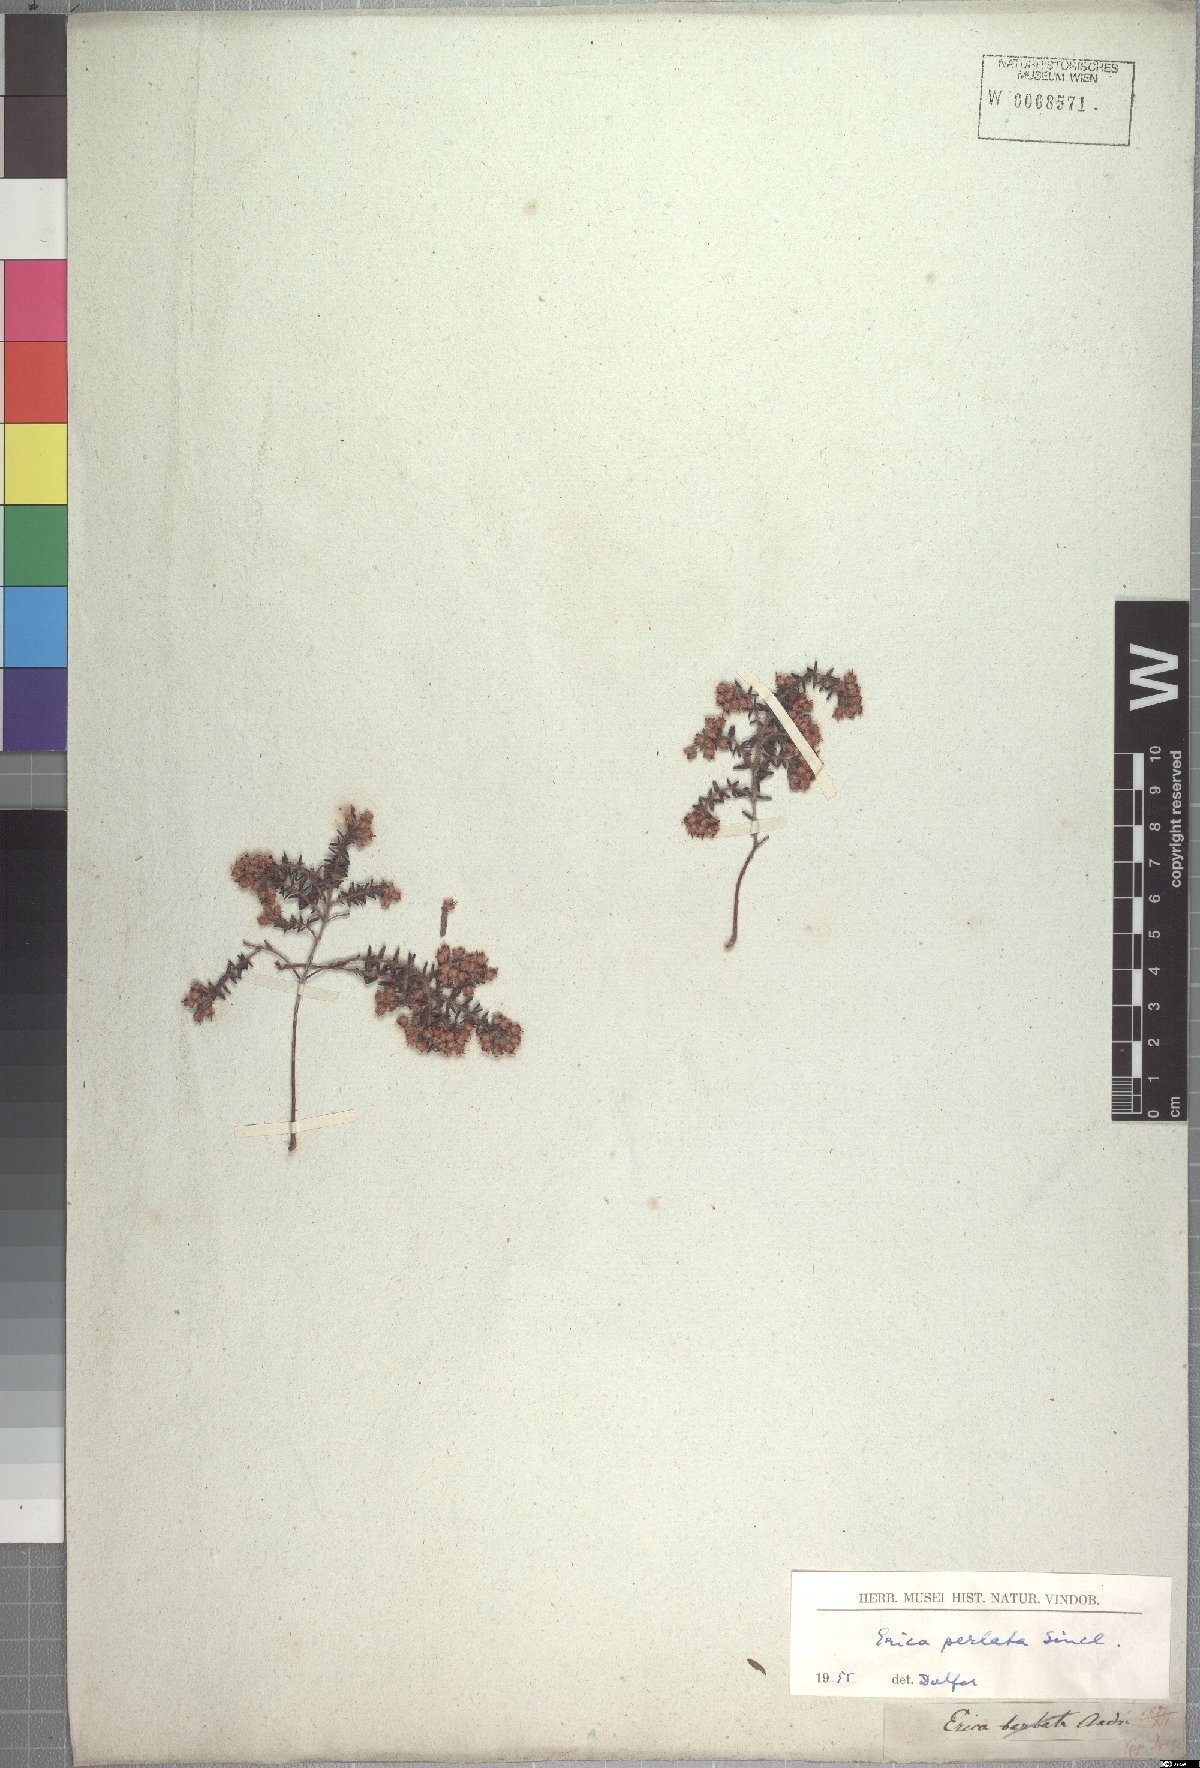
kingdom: Plantae
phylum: Tracheophyta
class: Magnoliopsida
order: Ericales
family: Ericaceae
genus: Erica
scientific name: Erica perlata
